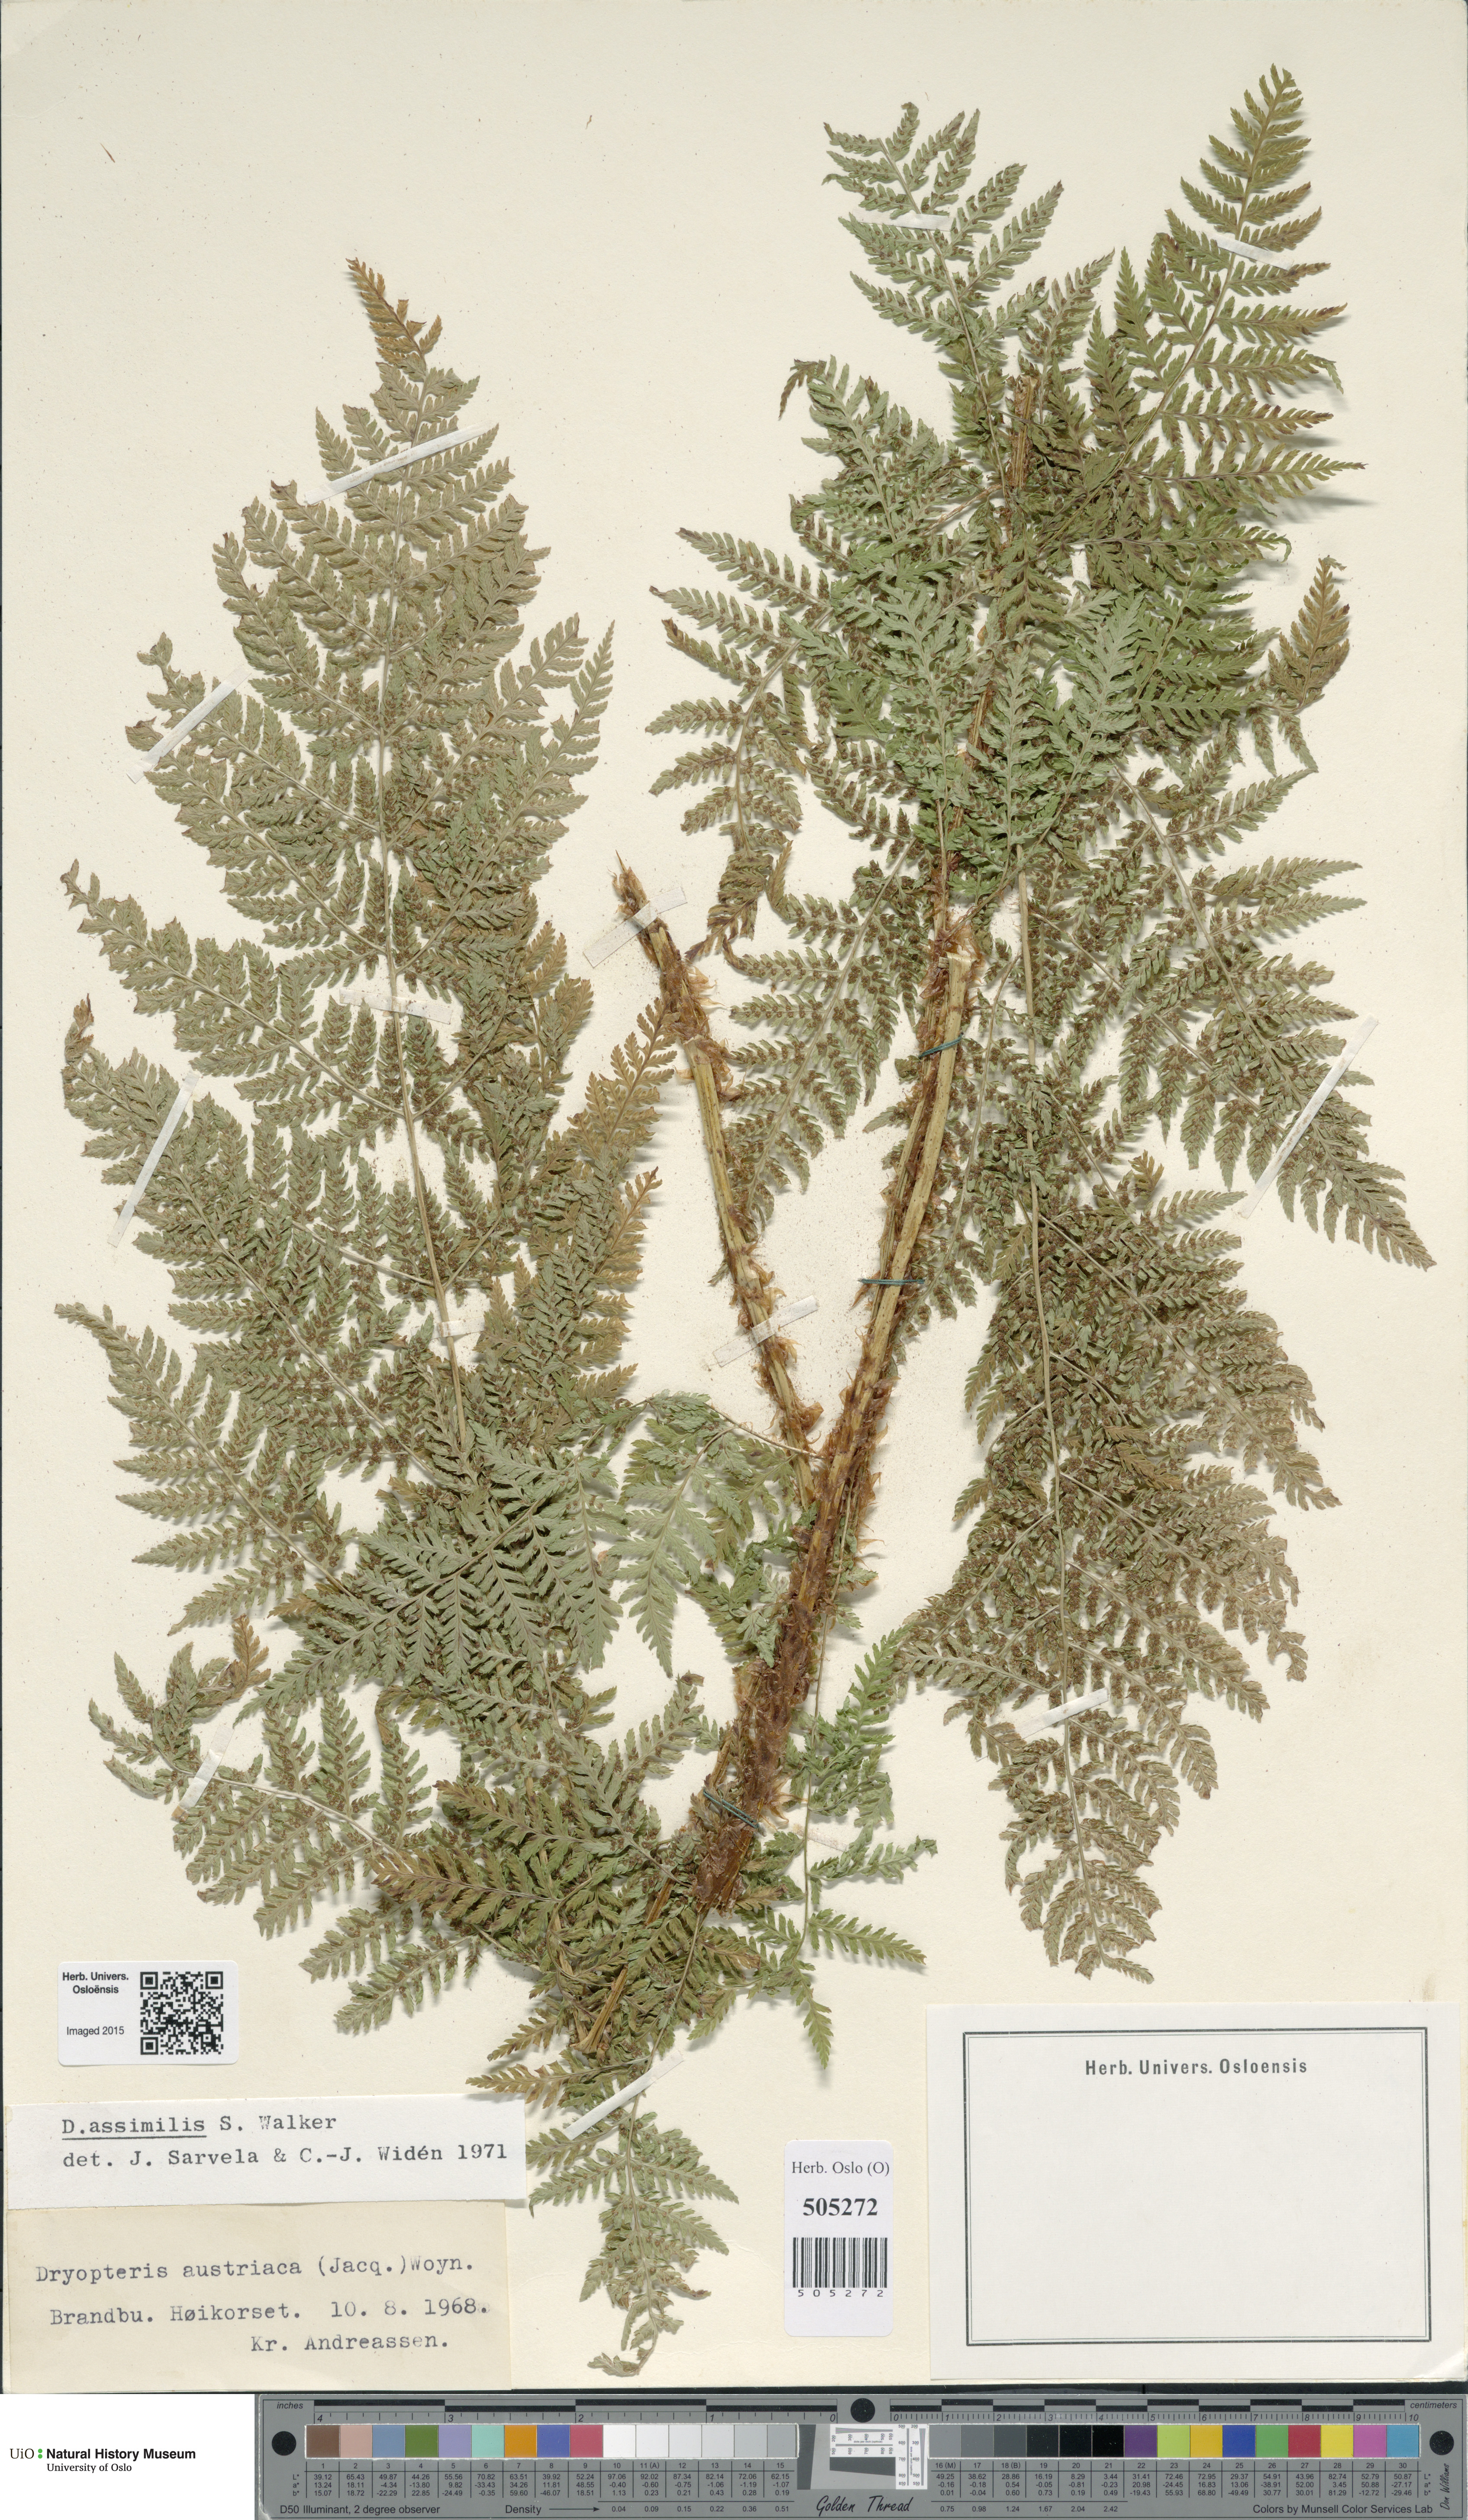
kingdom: Plantae
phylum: Tracheophyta
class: Polypodiopsida
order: Polypodiales
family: Dryopteridaceae
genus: Dryopteris
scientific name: Dryopteris expansa
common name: Northern buckler fern
